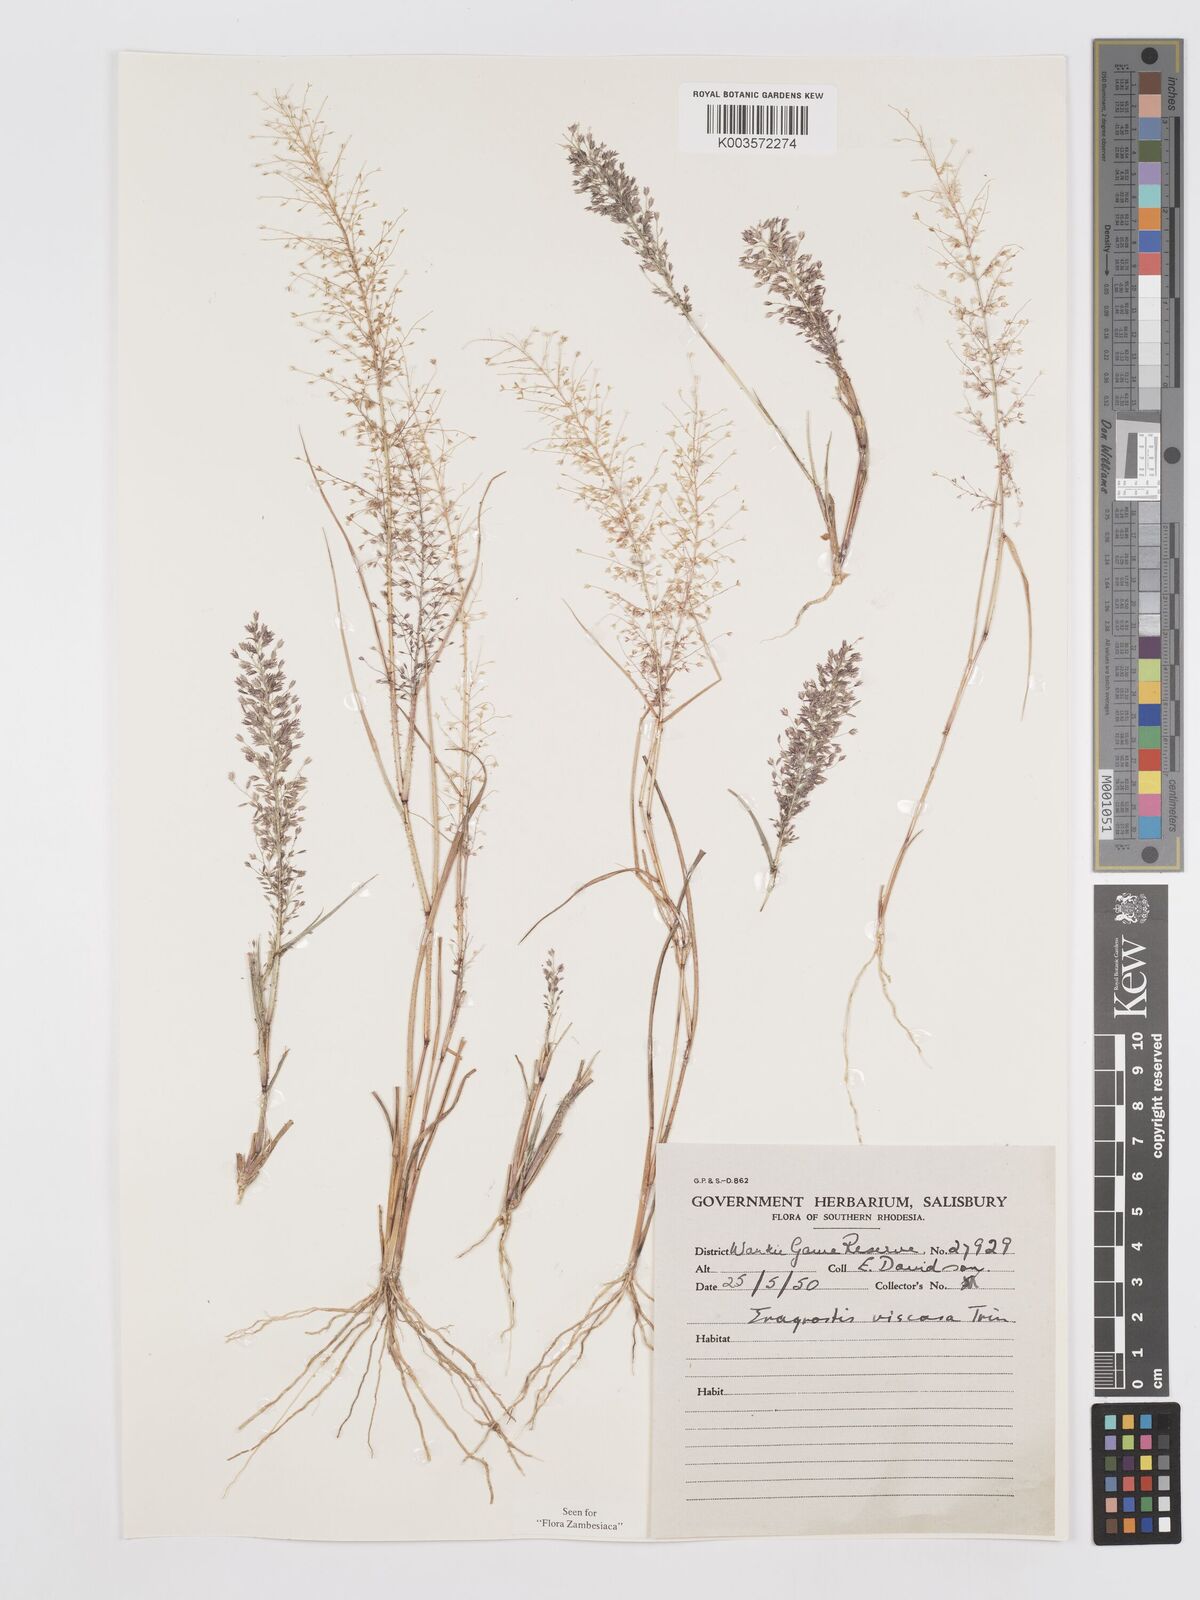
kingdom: Plantae
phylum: Tracheophyta
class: Liliopsida
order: Poales
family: Poaceae
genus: Eragrostis
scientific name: Eragrostis
